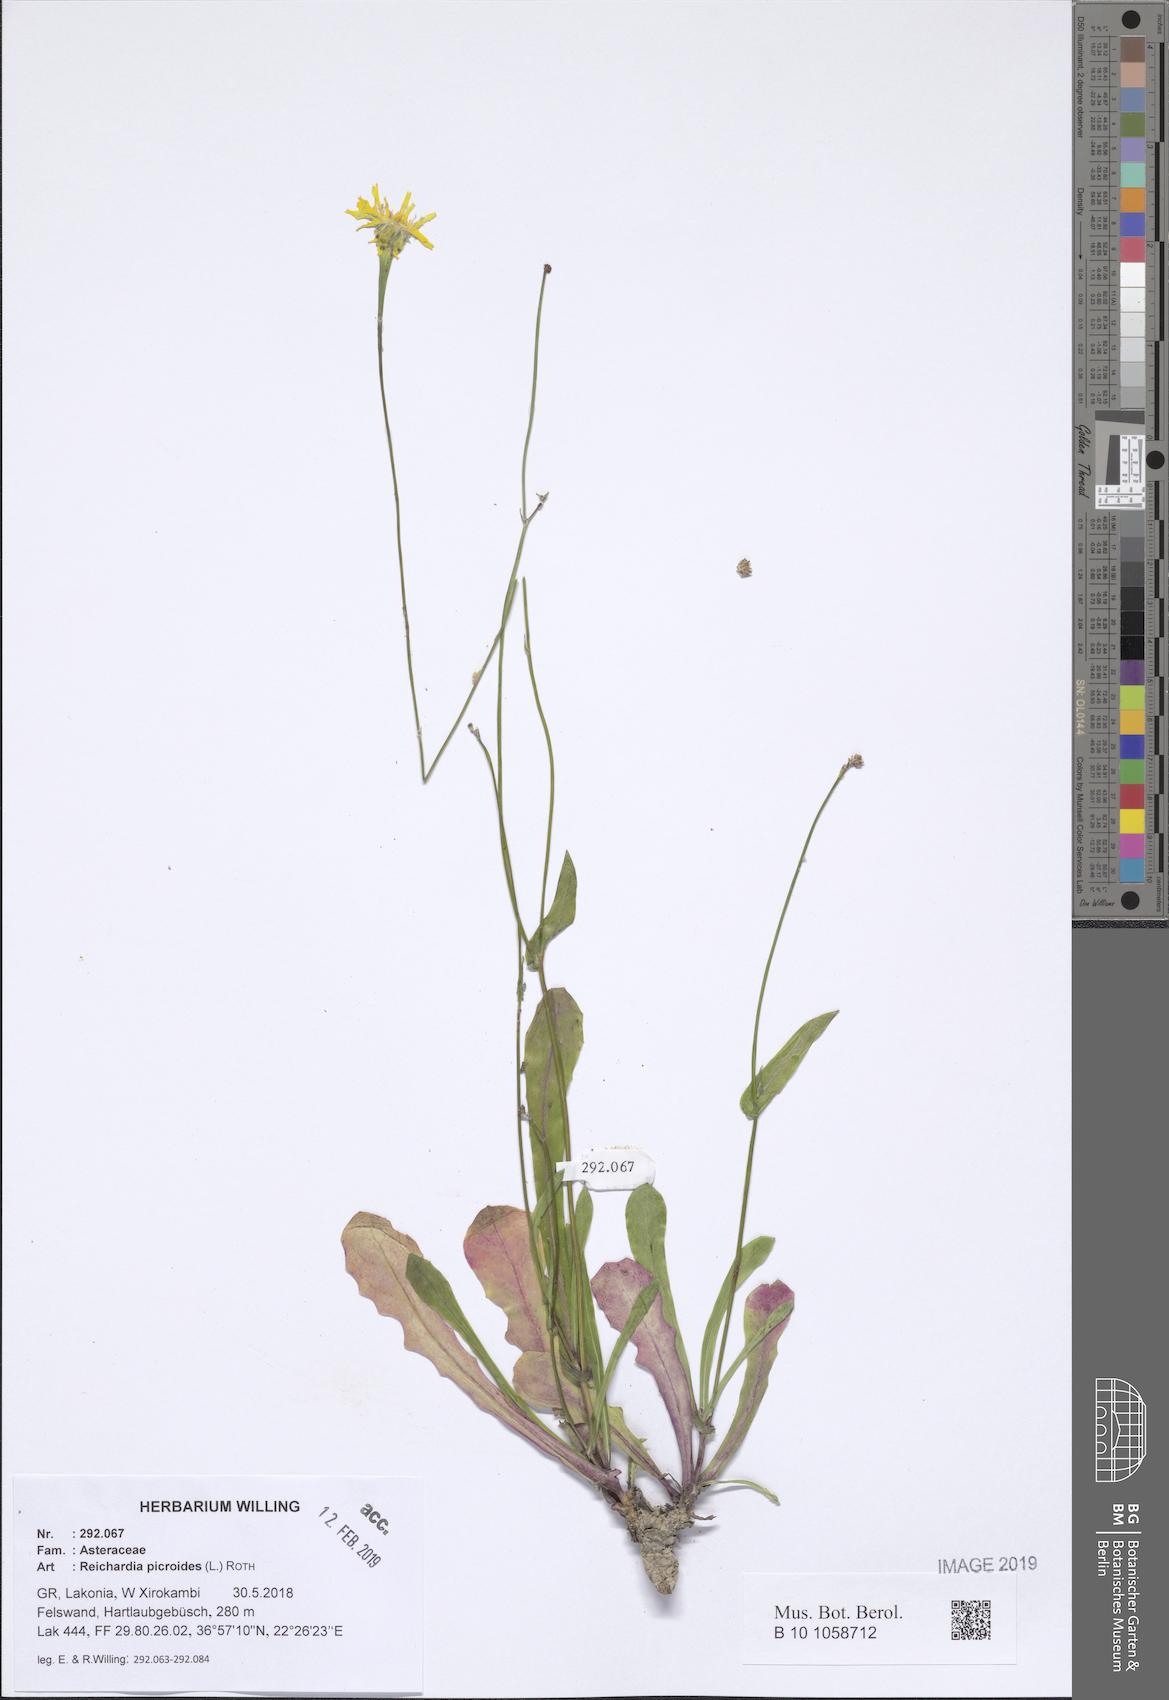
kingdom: Plantae
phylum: Tracheophyta
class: Magnoliopsida
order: Asterales
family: Asteraceae
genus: Reichardia
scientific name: Reichardia picroides
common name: Common brighteyes
